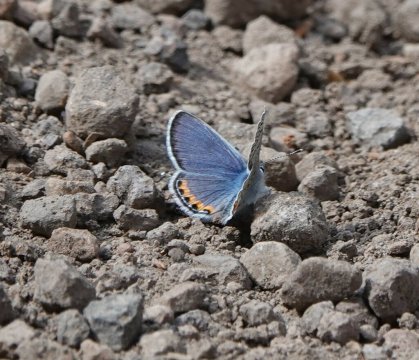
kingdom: Animalia
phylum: Arthropoda
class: Insecta
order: Lepidoptera
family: Lycaenidae
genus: Plebejus
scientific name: Plebejus acmon
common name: Acmon Blue
